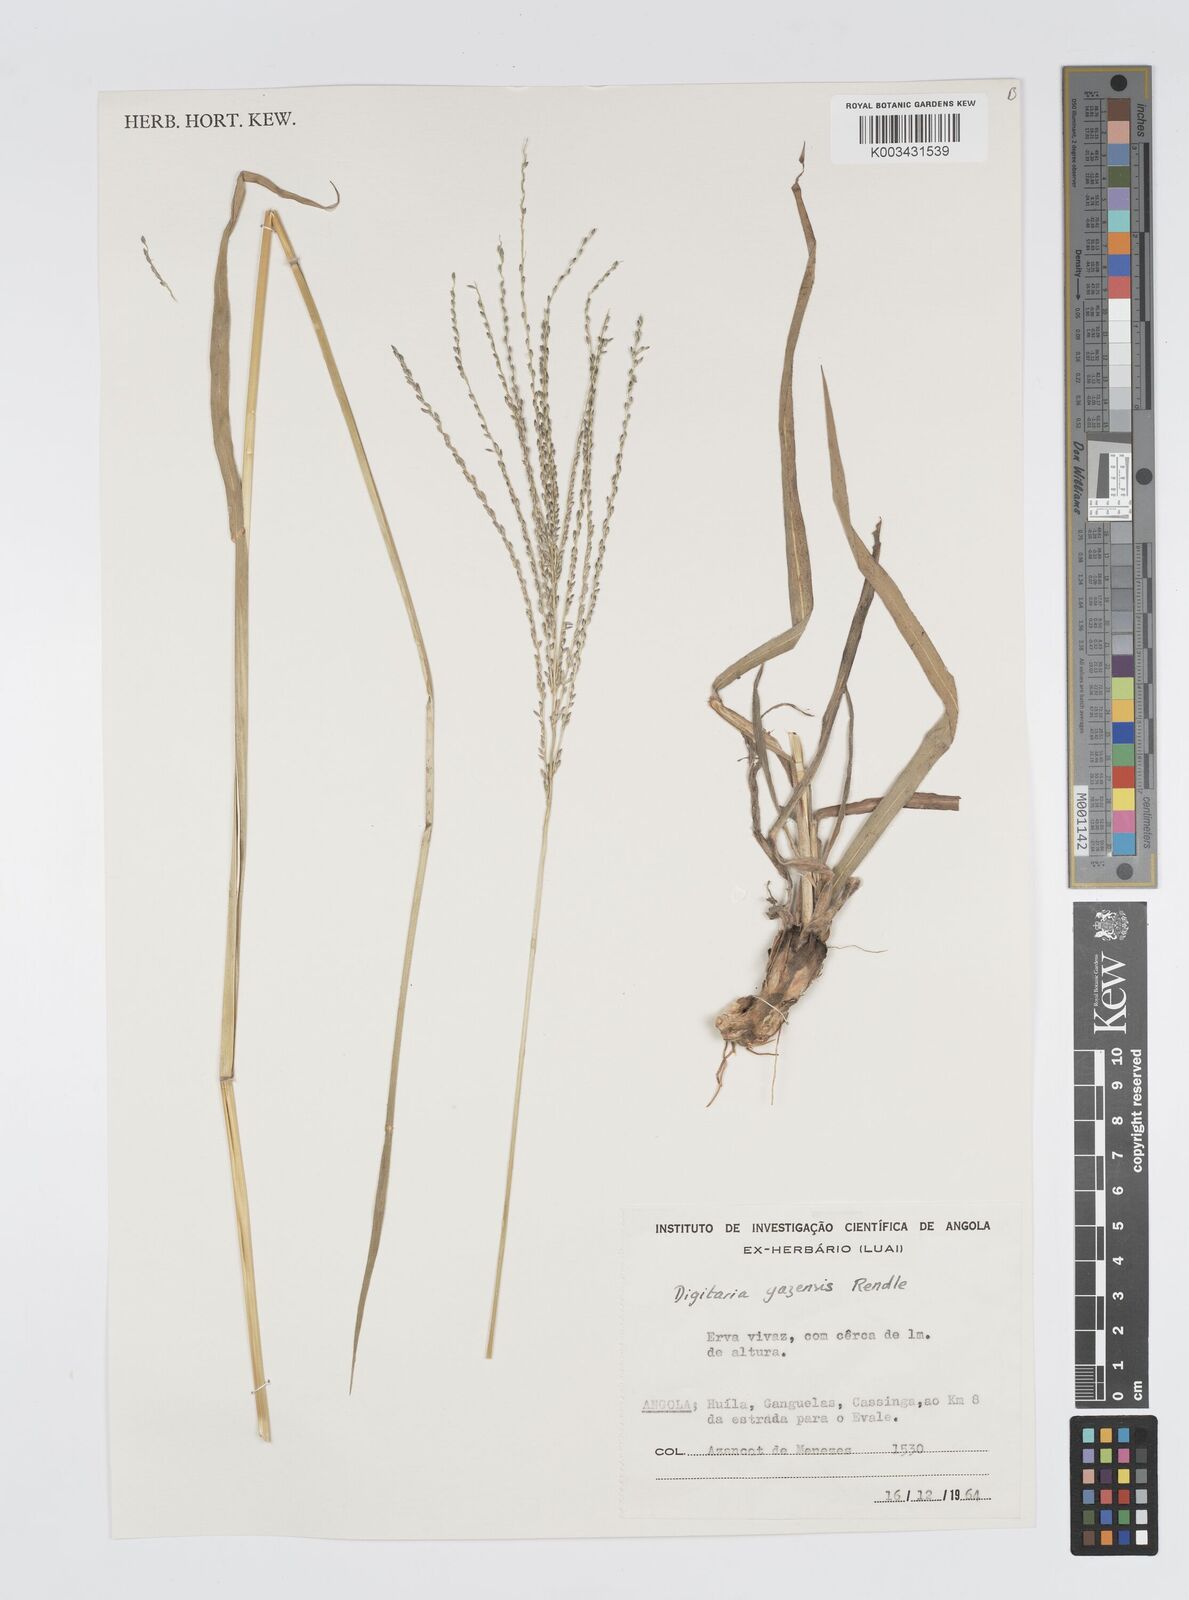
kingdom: Plantae
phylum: Tracheophyta
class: Liliopsida
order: Poales
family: Poaceae
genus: Digitaria
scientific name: Digitaria gazensis
